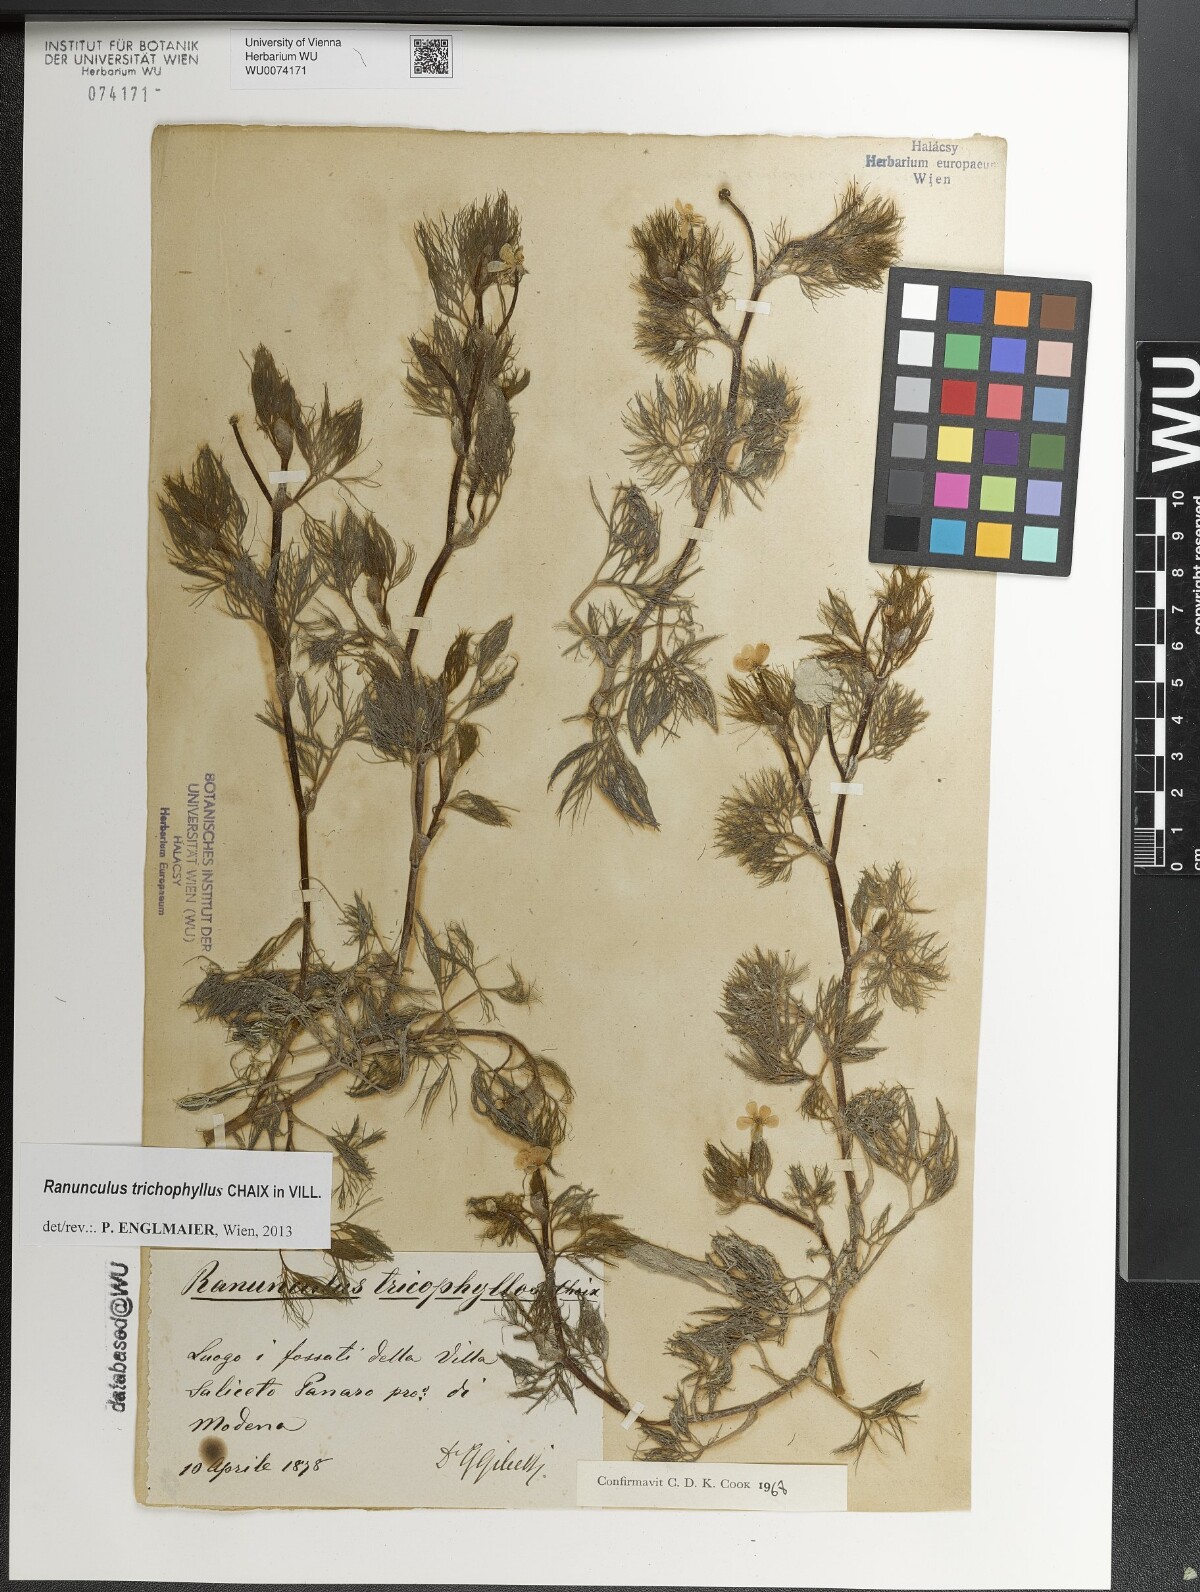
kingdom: Plantae
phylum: Tracheophyta
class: Magnoliopsida
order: Ranunculales
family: Ranunculaceae
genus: Ranunculus
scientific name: Ranunculus trichophyllus
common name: Thread-leaved water-crowfoot
